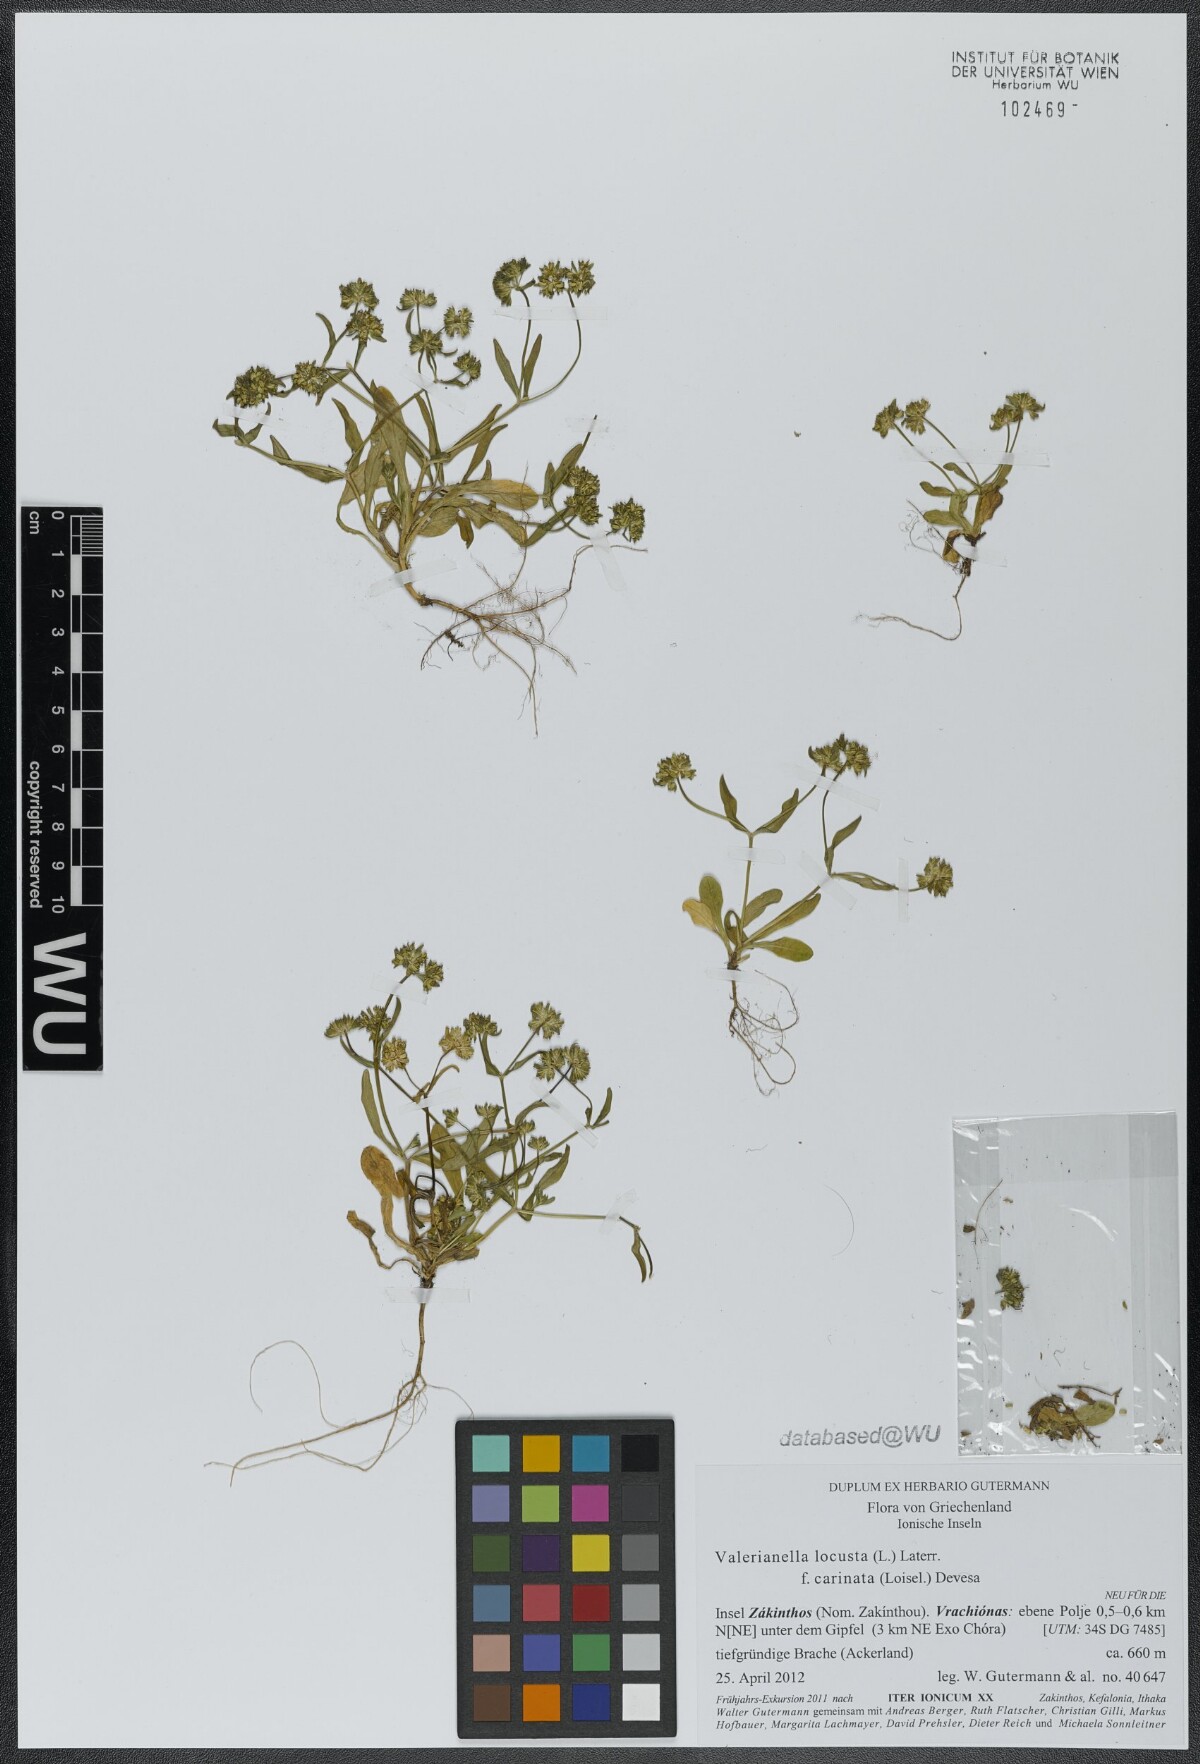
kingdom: Plantae
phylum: Tracheophyta
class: Magnoliopsida
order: Dipsacales
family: Caprifoliaceae
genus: Valerianella
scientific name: Valerianella locusta
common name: Common cornsalad
